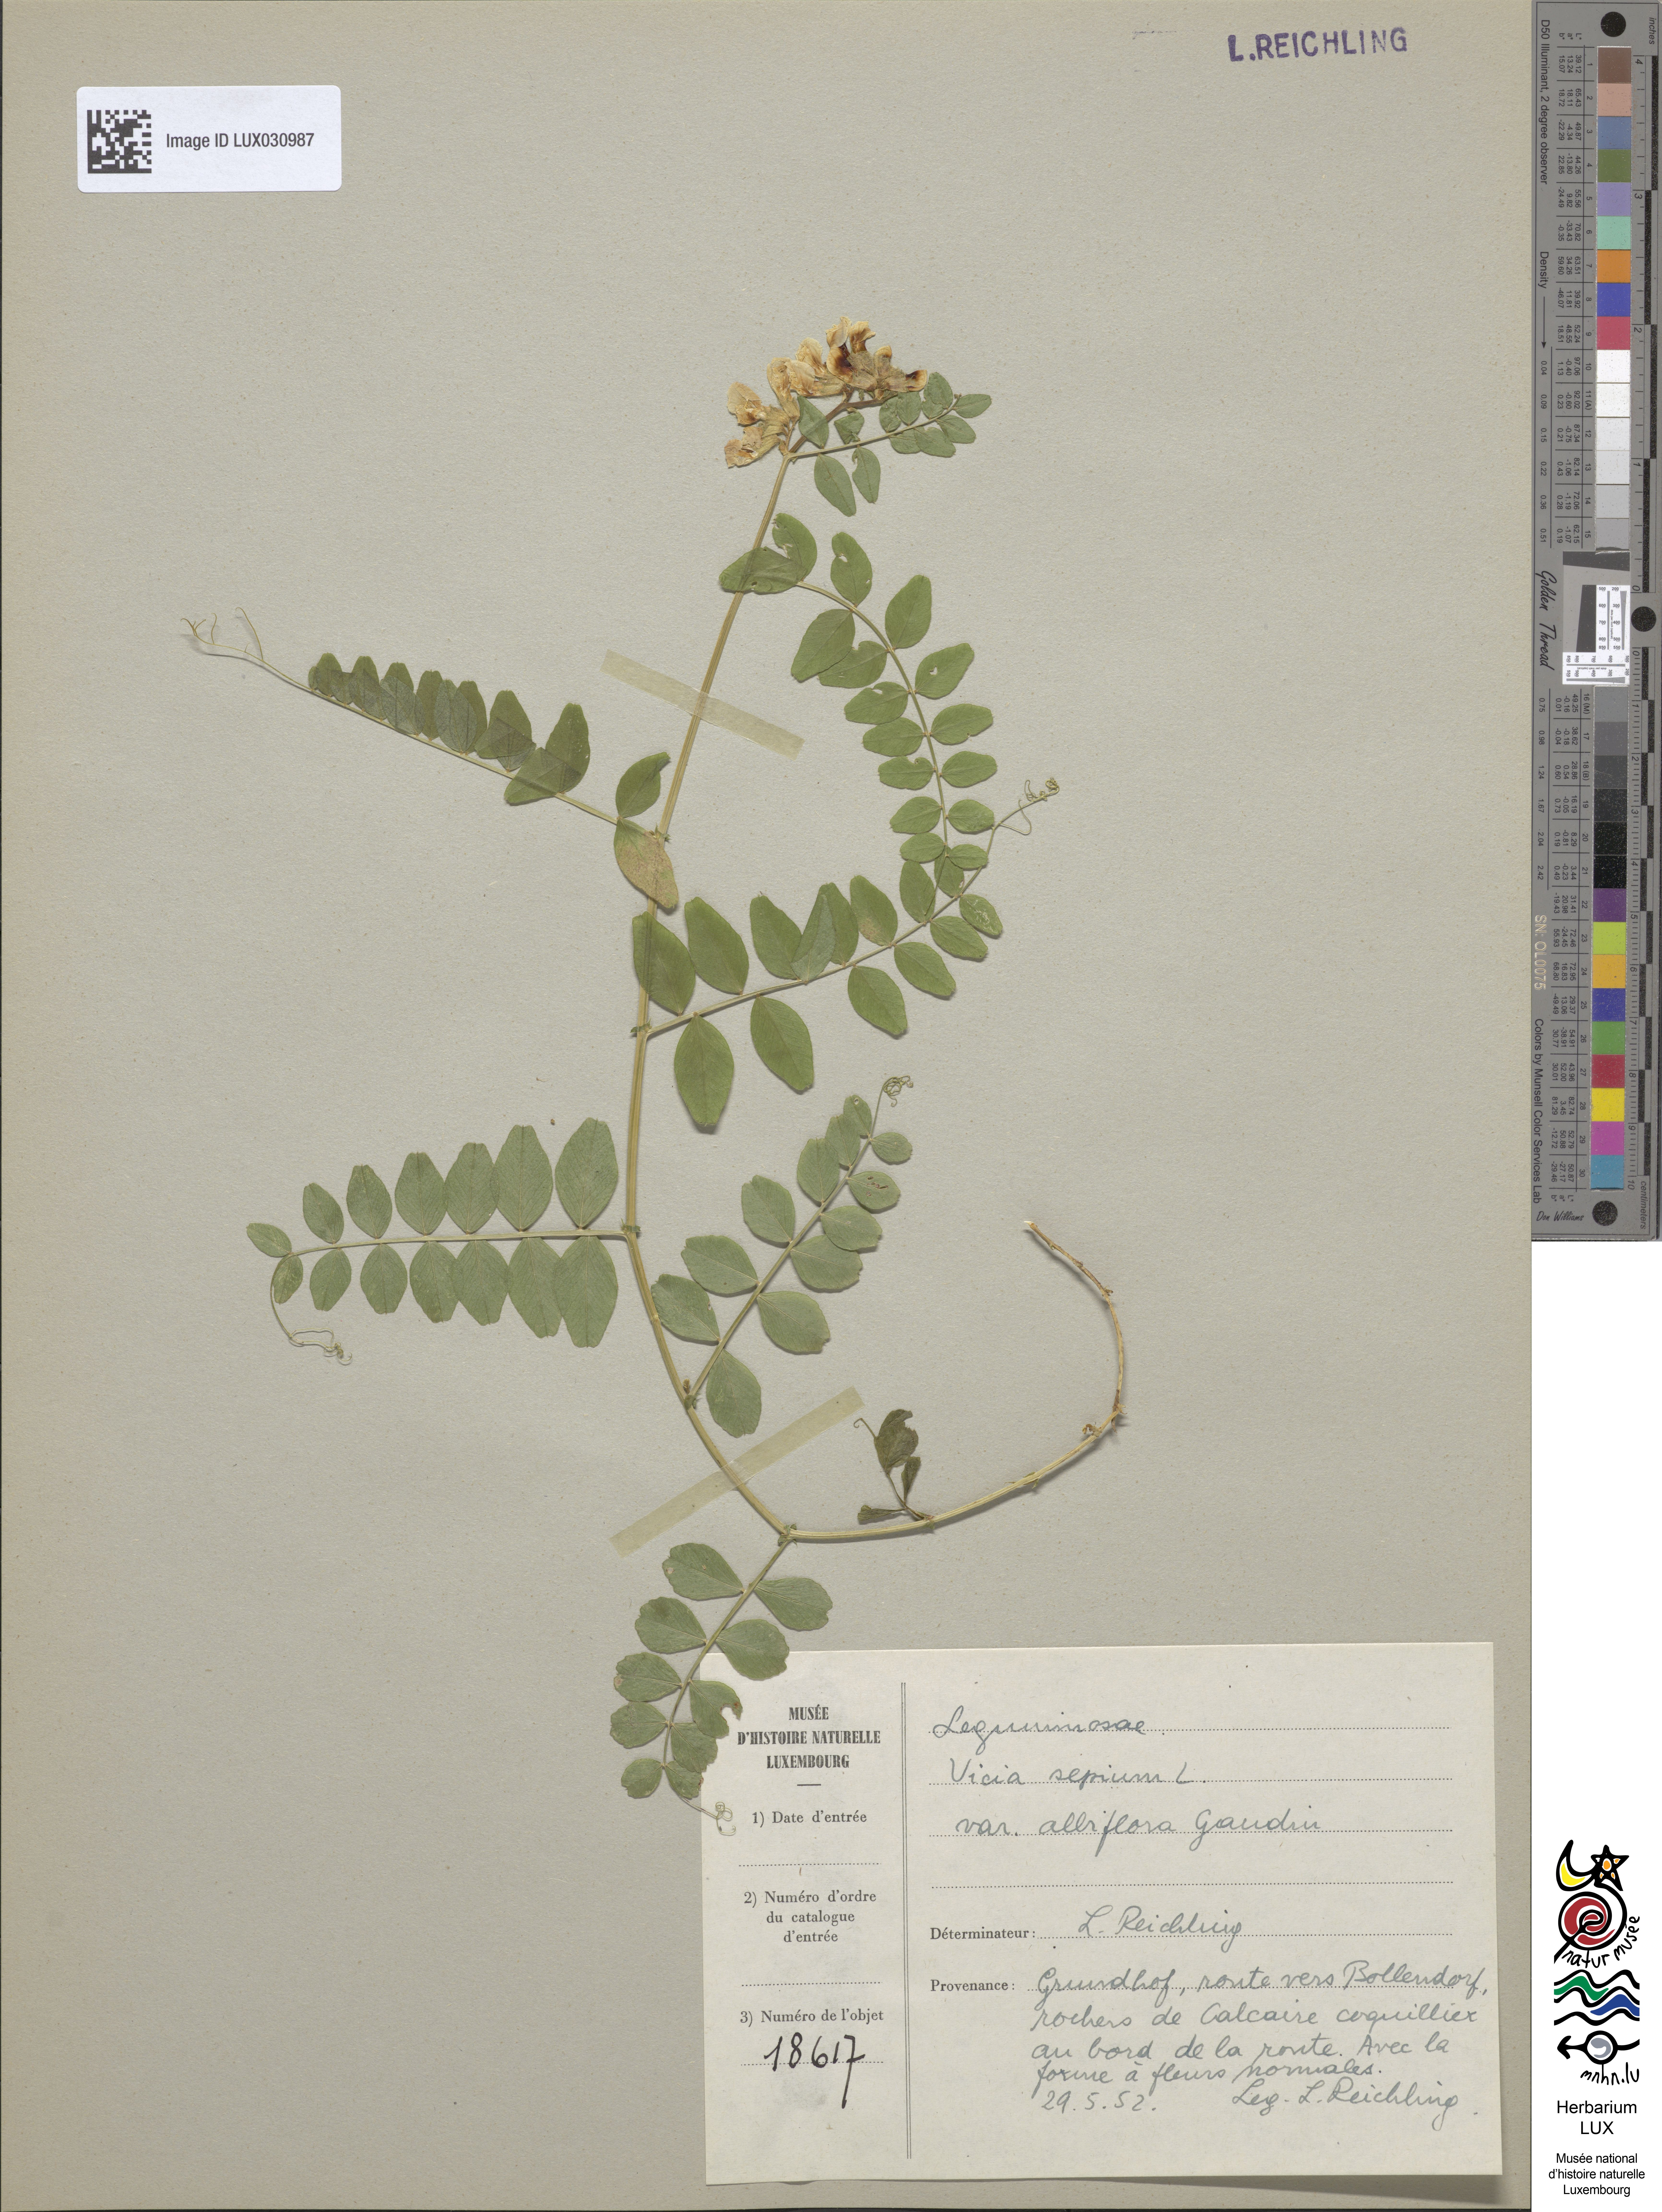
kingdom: Plantae
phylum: Tracheophyta
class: Magnoliopsida
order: Fabales
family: Fabaceae
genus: Vicia
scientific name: Vicia sepium
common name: Bush vetch
